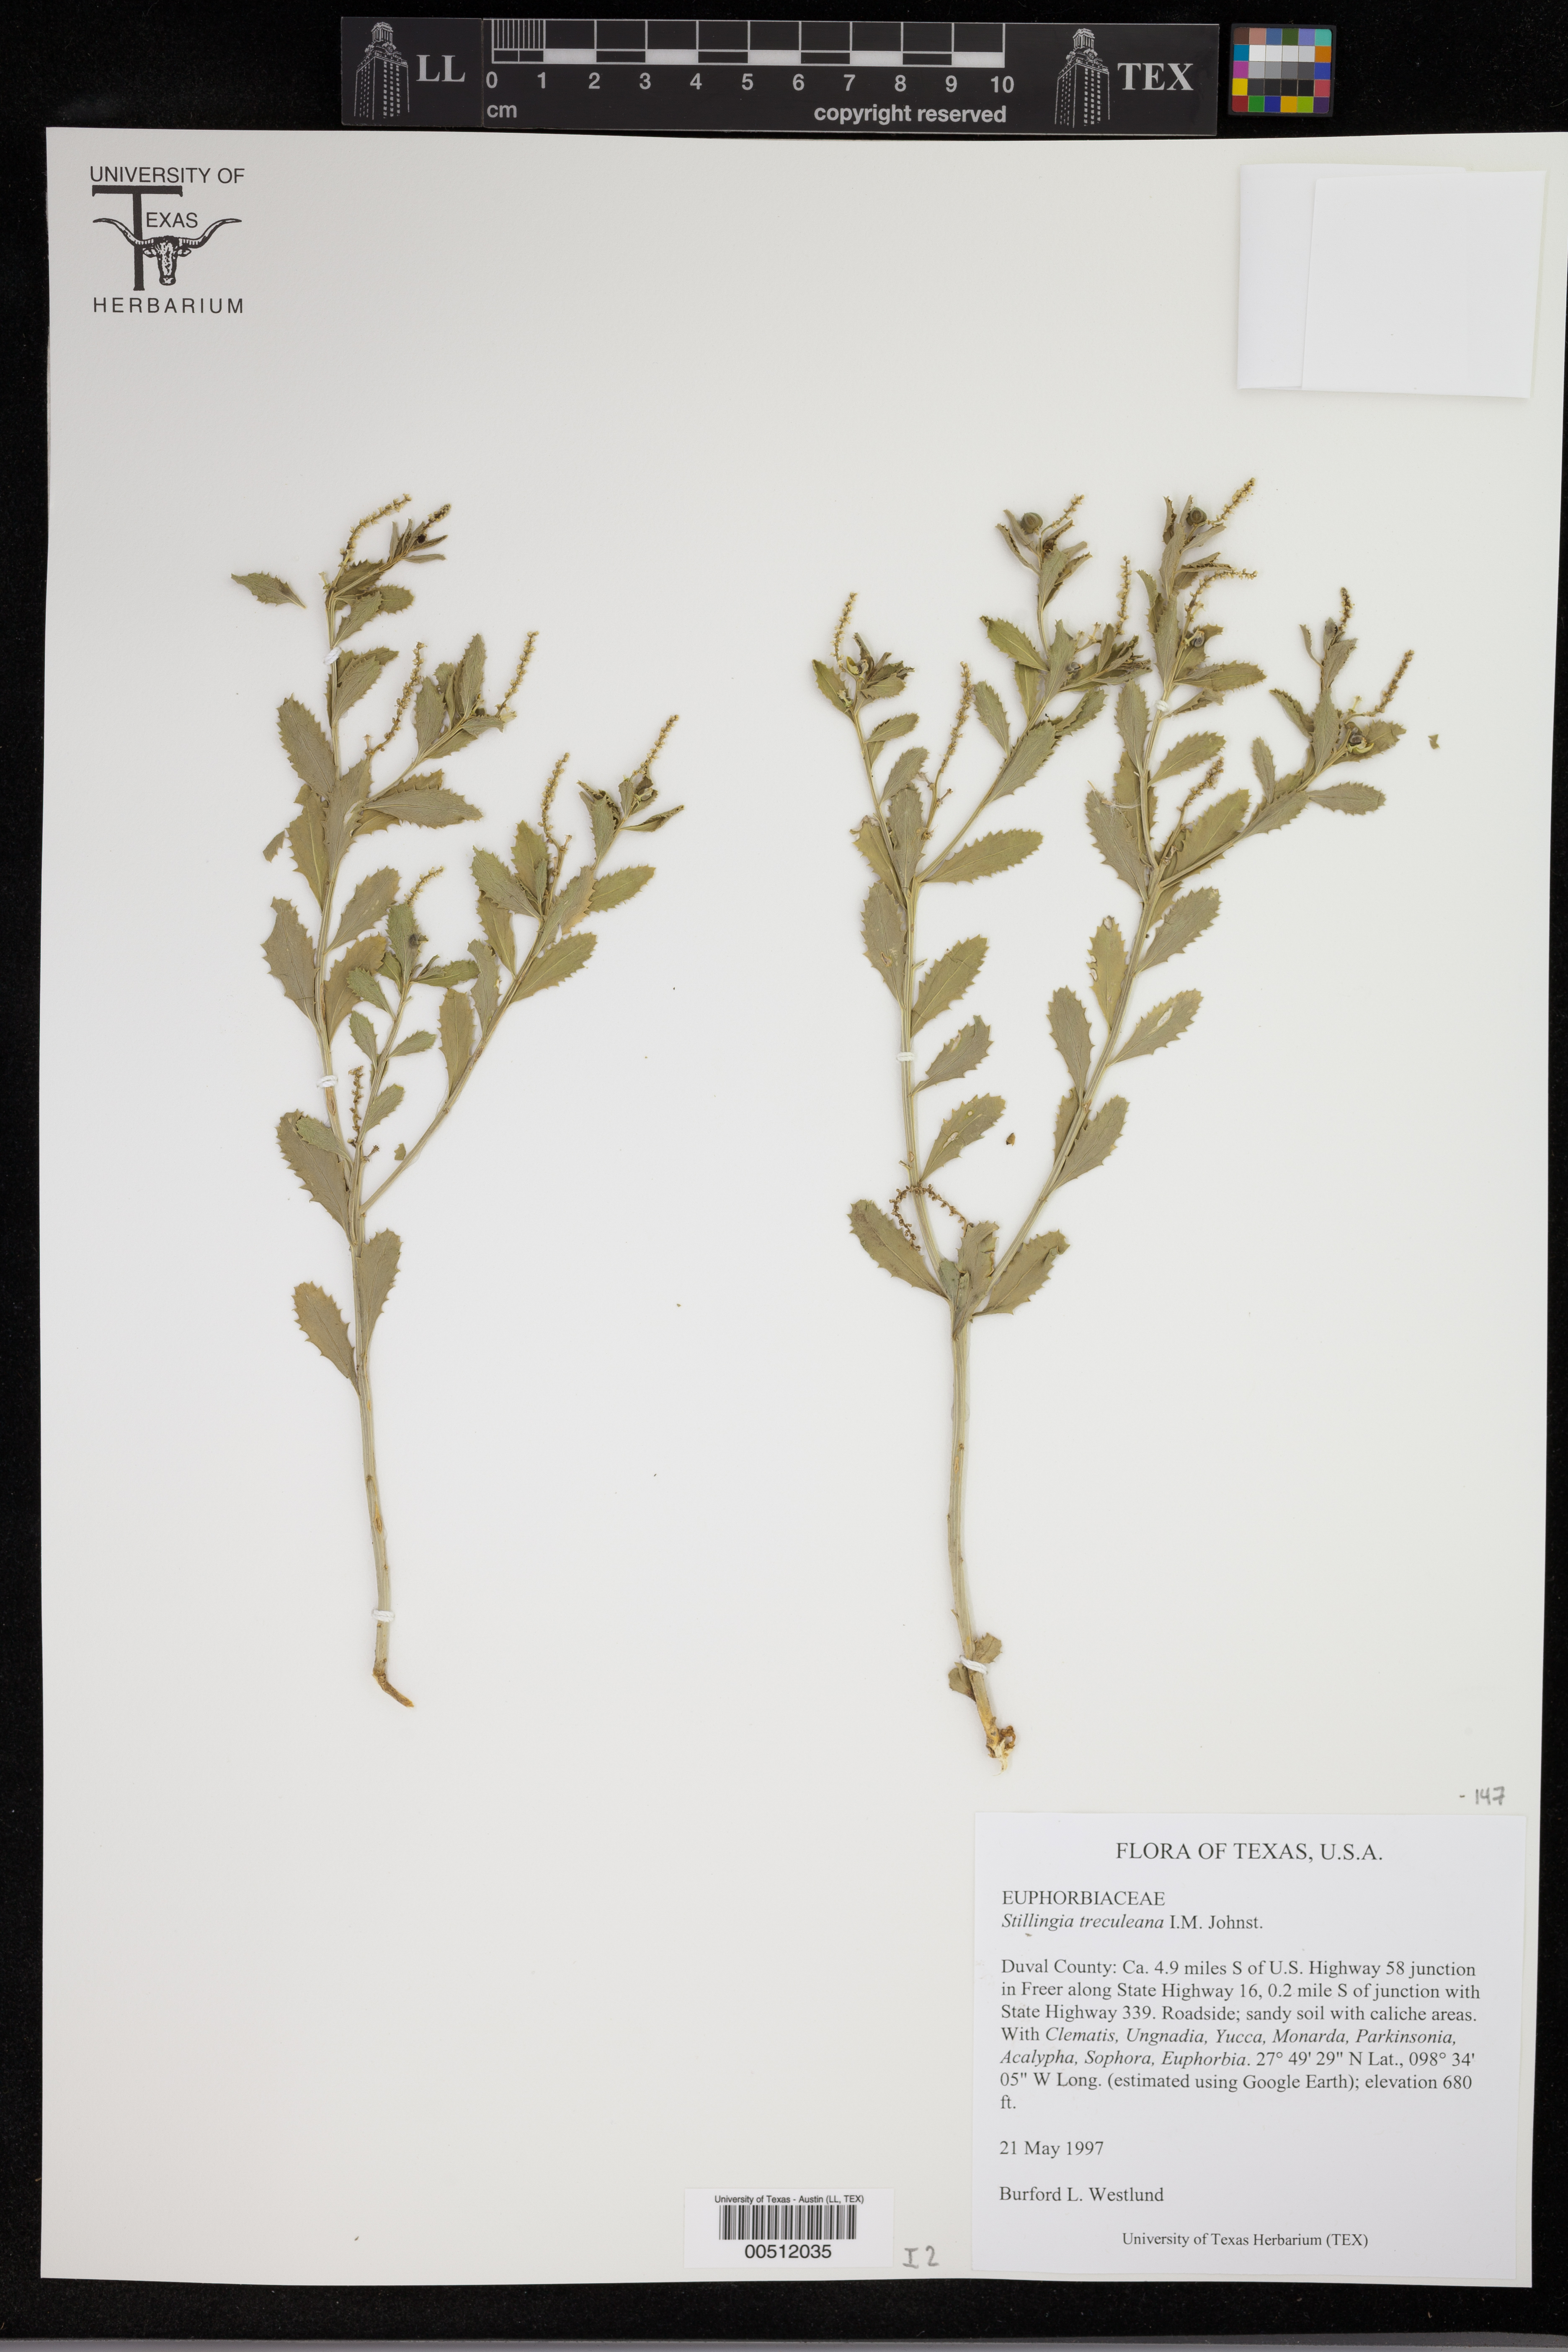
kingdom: Plantae
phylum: Tracheophyta
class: Magnoliopsida
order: Malpighiales
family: Euphorbiaceae
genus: Stillingia
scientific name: Stillingia treculiana
